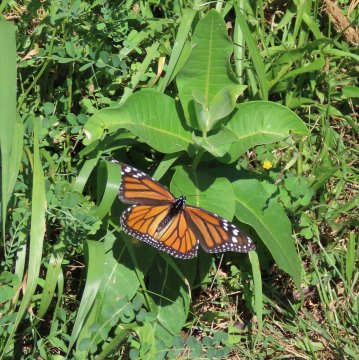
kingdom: Animalia
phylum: Arthropoda
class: Insecta
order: Lepidoptera
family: Nymphalidae
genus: Danaus
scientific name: Danaus plexippus
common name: Monarch
